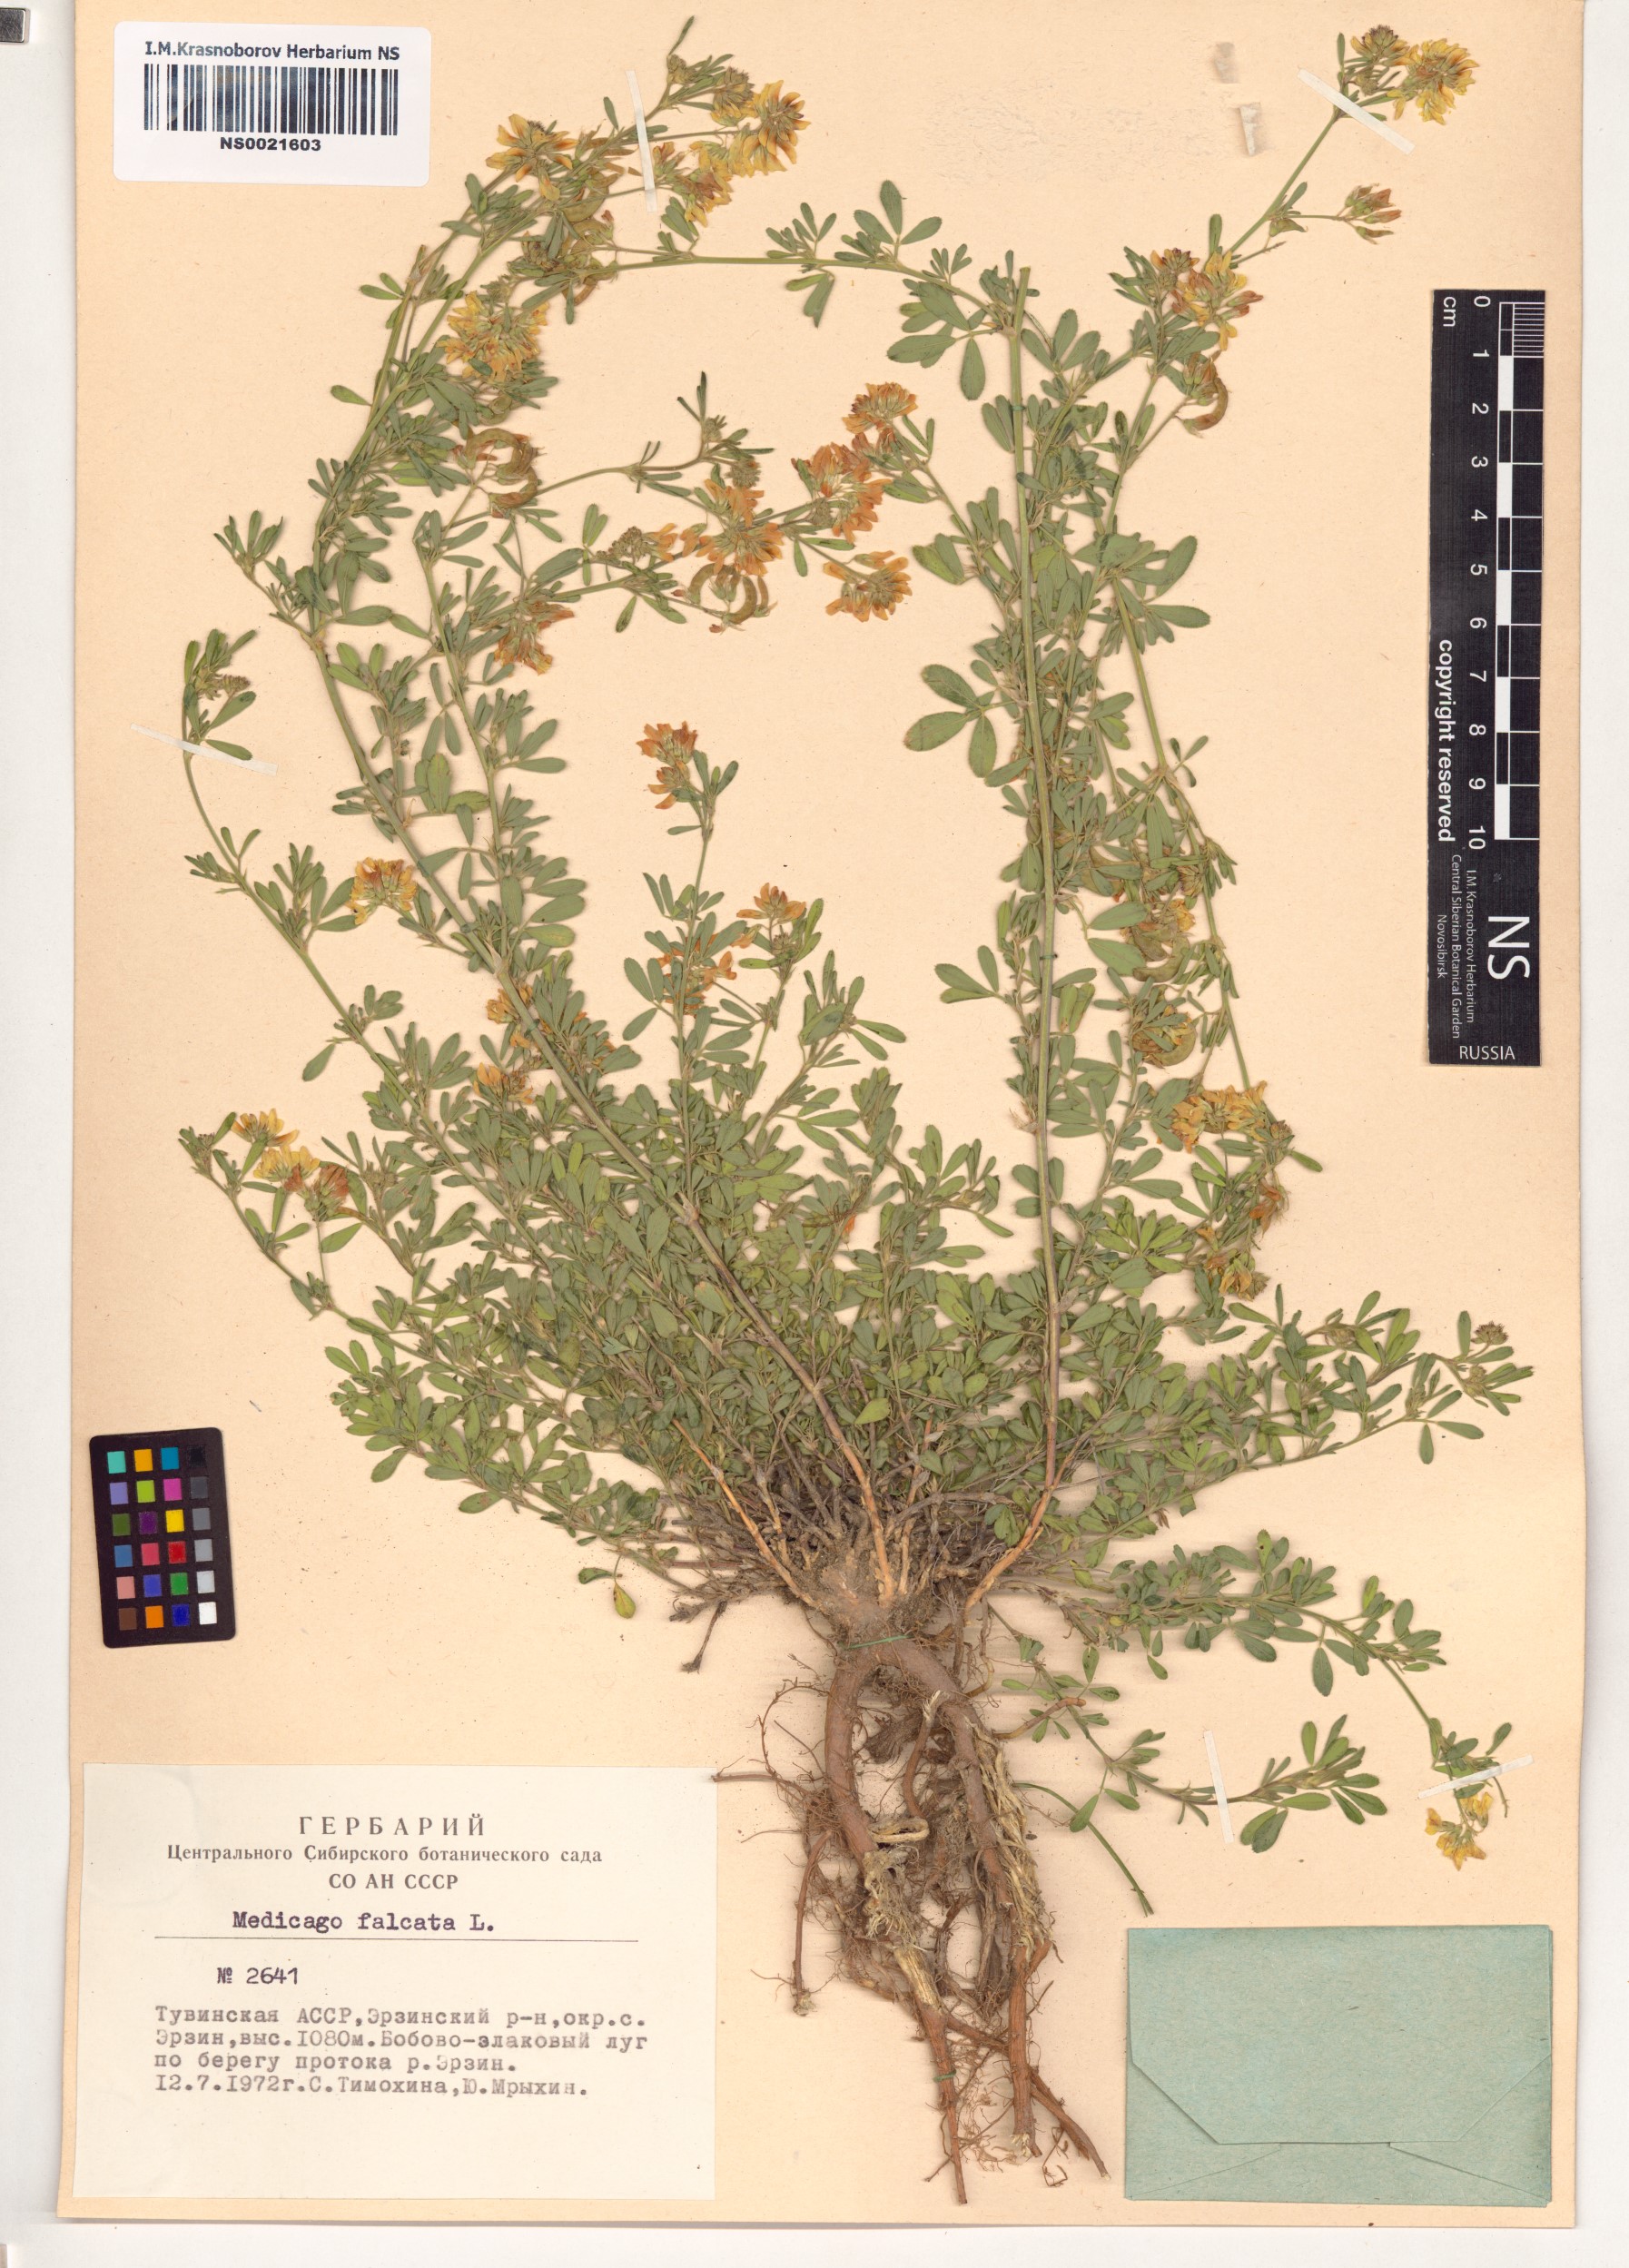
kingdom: Plantae
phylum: Tracheophyta
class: Magnoliopsida
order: Fabales
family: Fabaceae
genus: Medicago
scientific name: Medicago falcata
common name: Sickle medick
